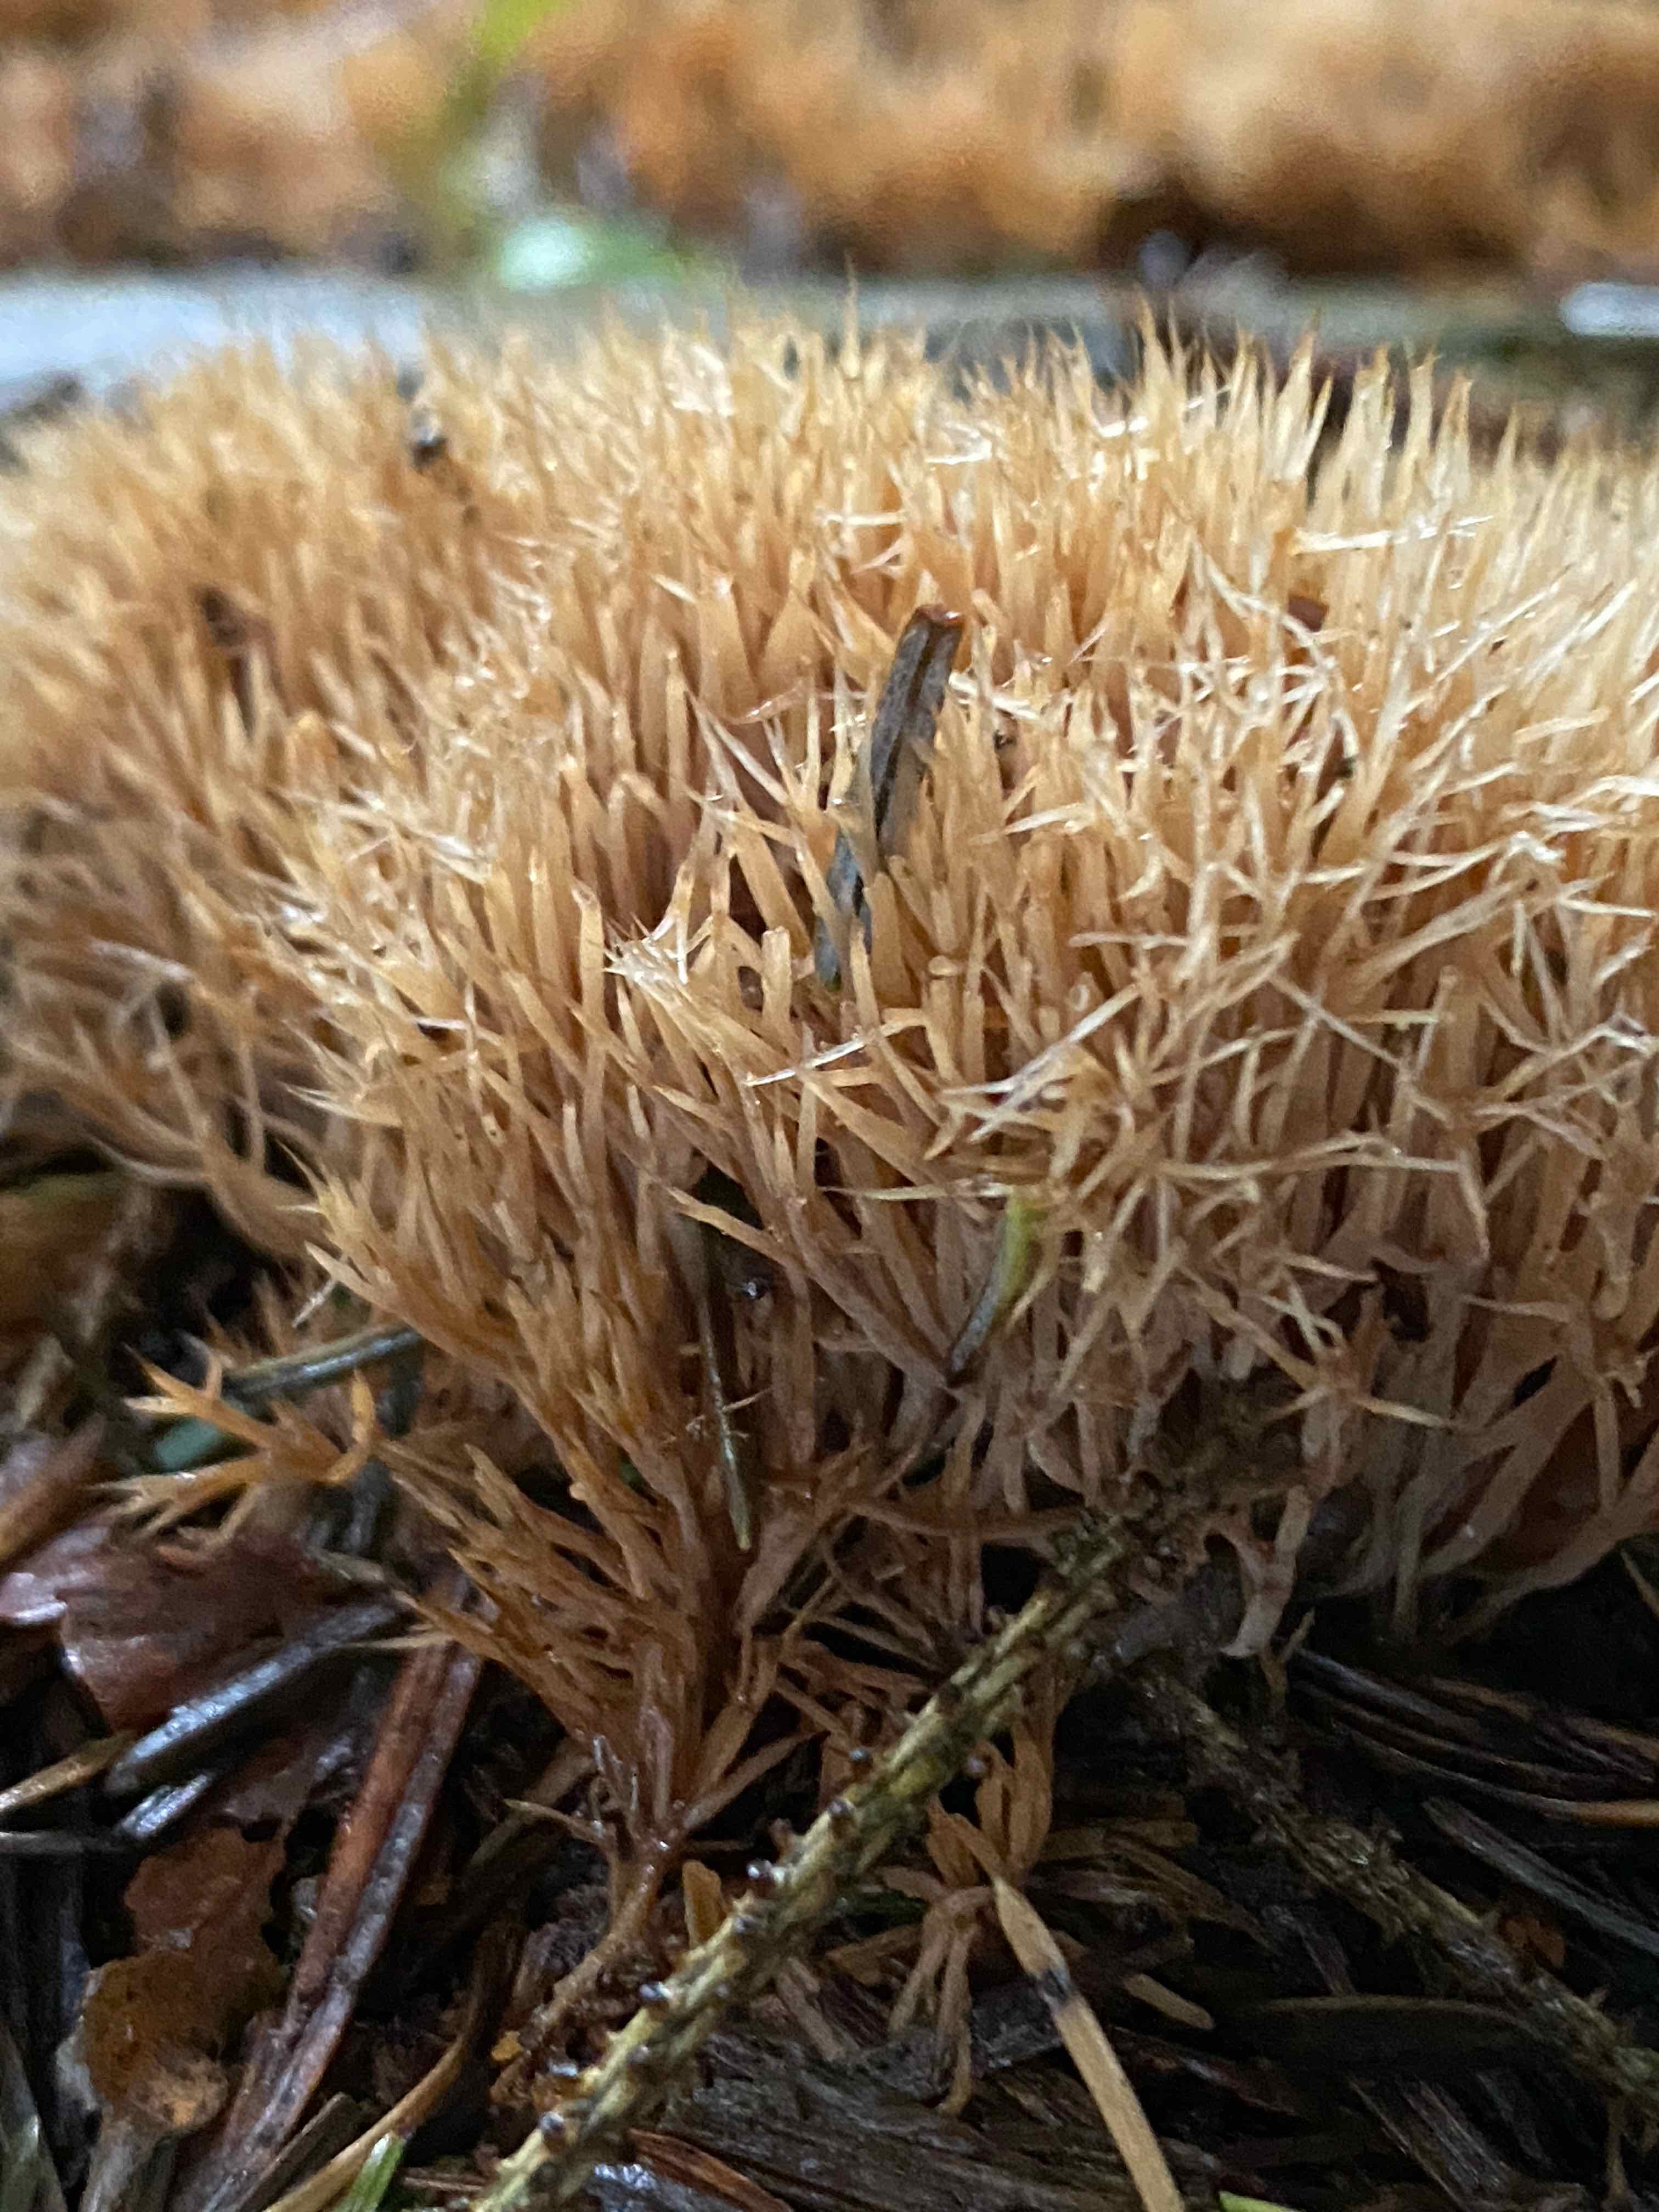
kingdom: Fungi
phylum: Basidiomycota
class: Agaricomycetes
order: Agaricales
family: Pterulaceae
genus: Pterula
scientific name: Pterula multifida
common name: busket fjerkølle
